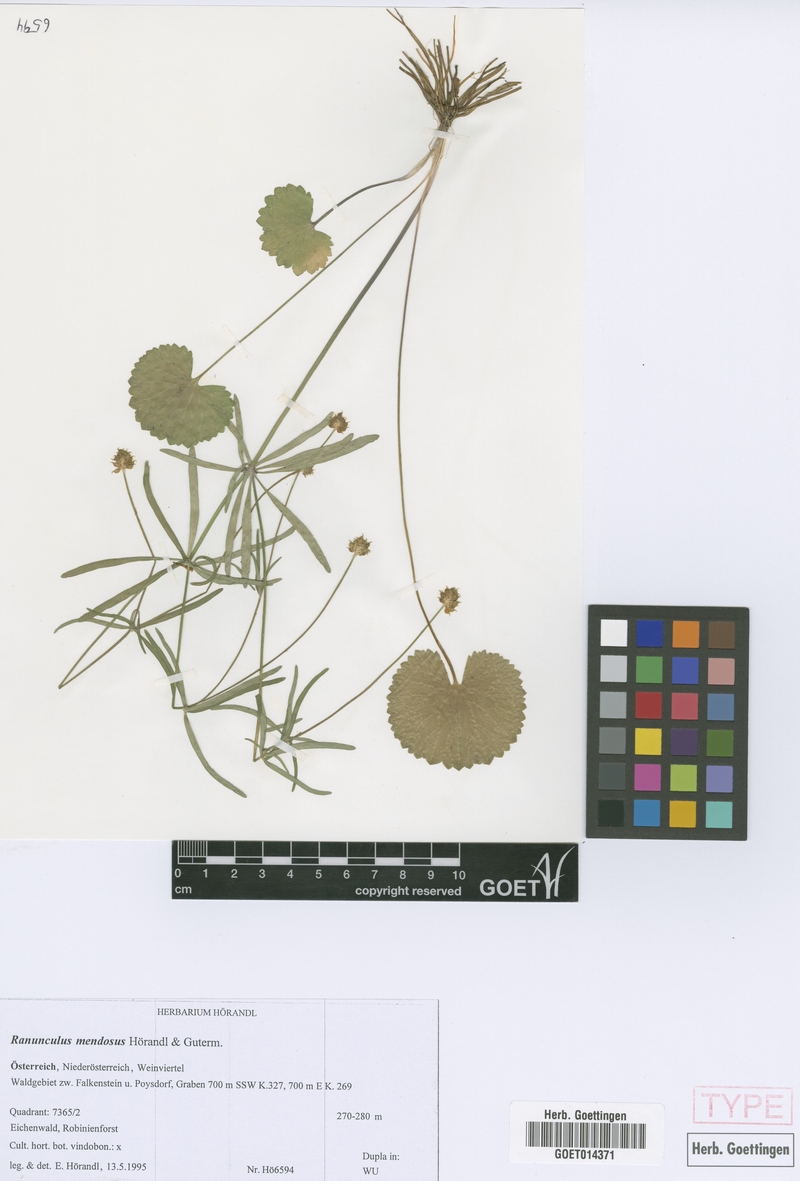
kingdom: Plantae
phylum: Tracheophyta
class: Magnoliopsida
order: Ranunculales
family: Ranunculaceae
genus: Ranunculus
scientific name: Ranunculus mendosus
